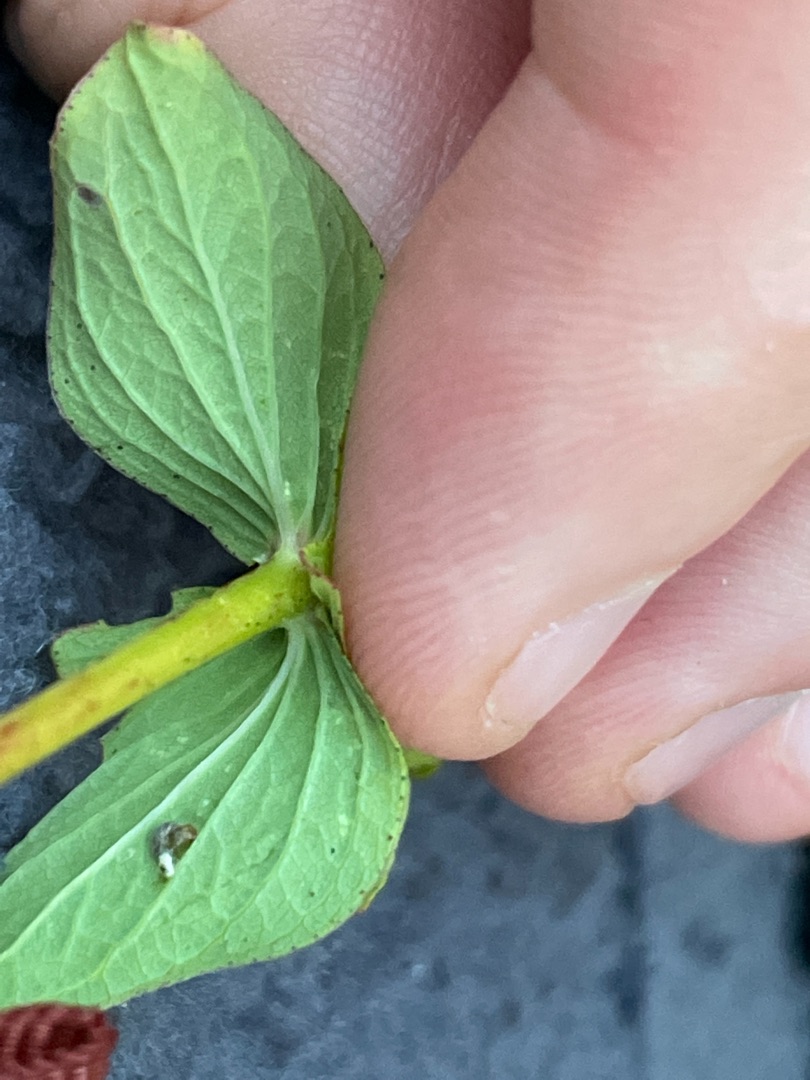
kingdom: Plantae
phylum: Tracheophyta
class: Magnoliopsida
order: Malpighiales
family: Hypericaceae
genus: Hypericum
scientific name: Hypericum perforatum
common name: Prikbladet perikon
